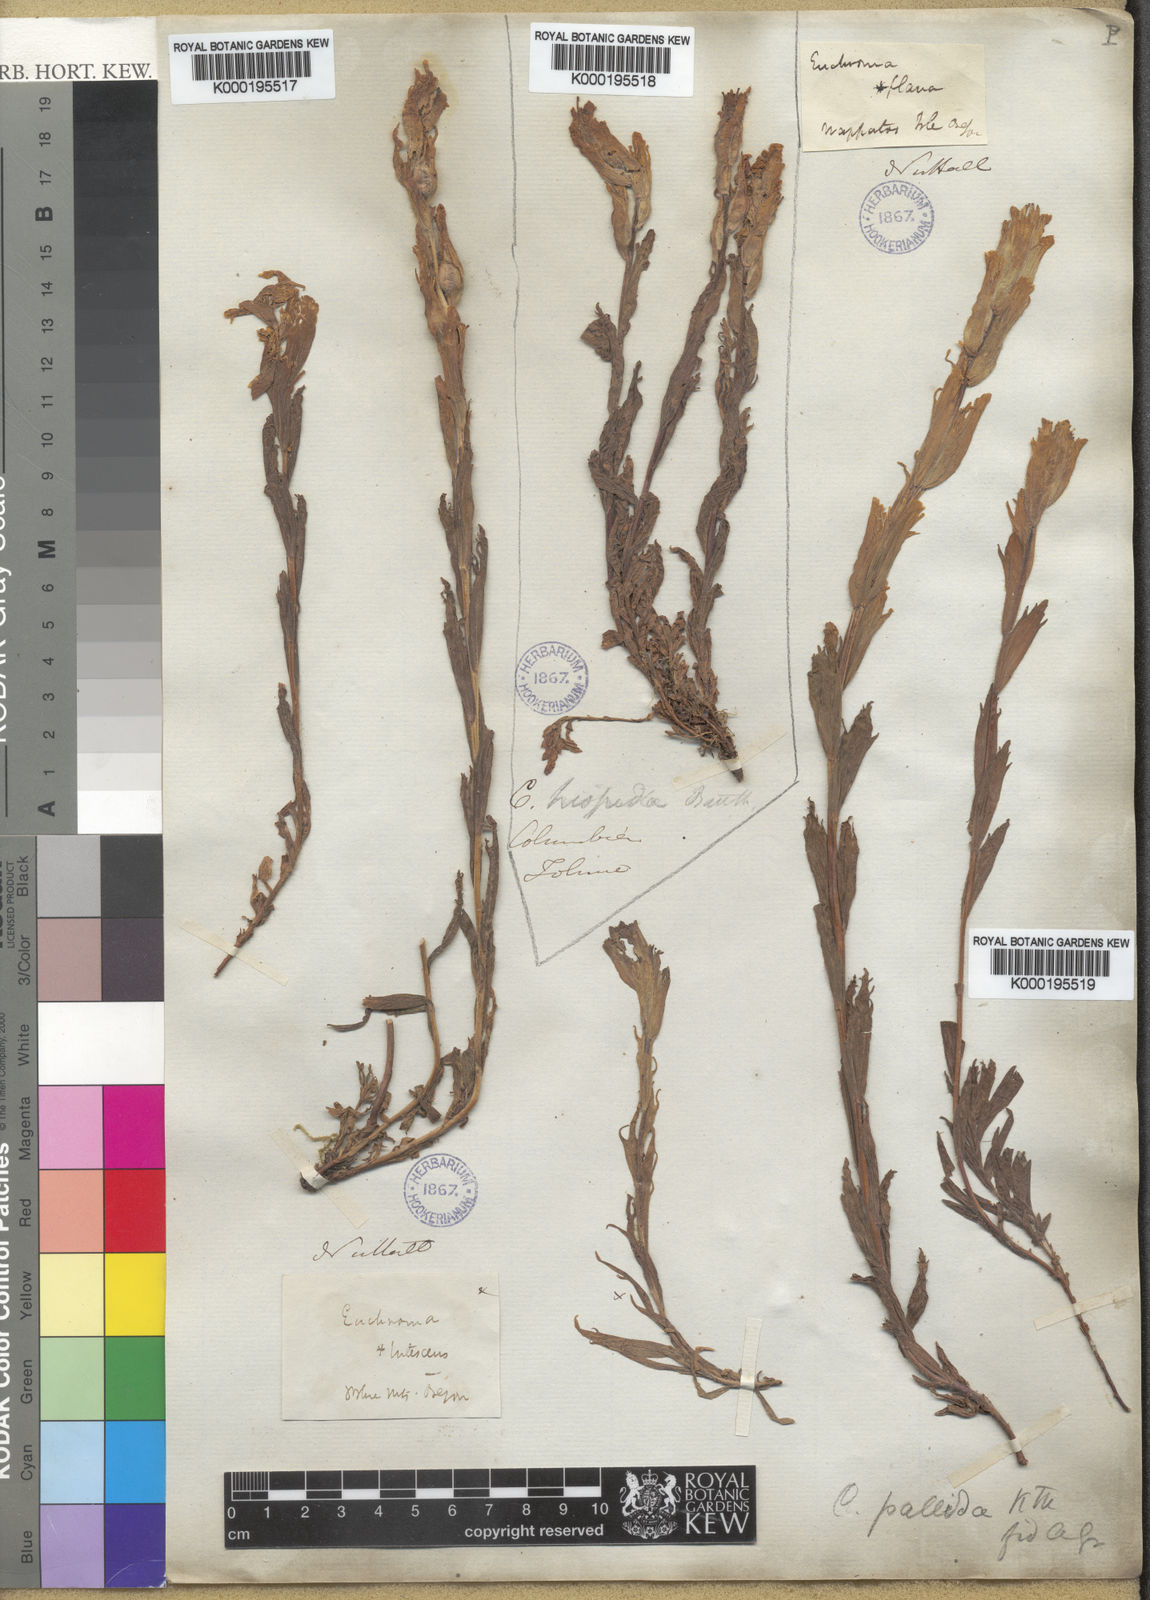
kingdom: Plantae
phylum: Tracheophyta
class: Magnoliopsida
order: Lamiales
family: Orobanchaceae
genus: Castilleja
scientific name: Castilleja cusickii
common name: Cusick's paintbrush
